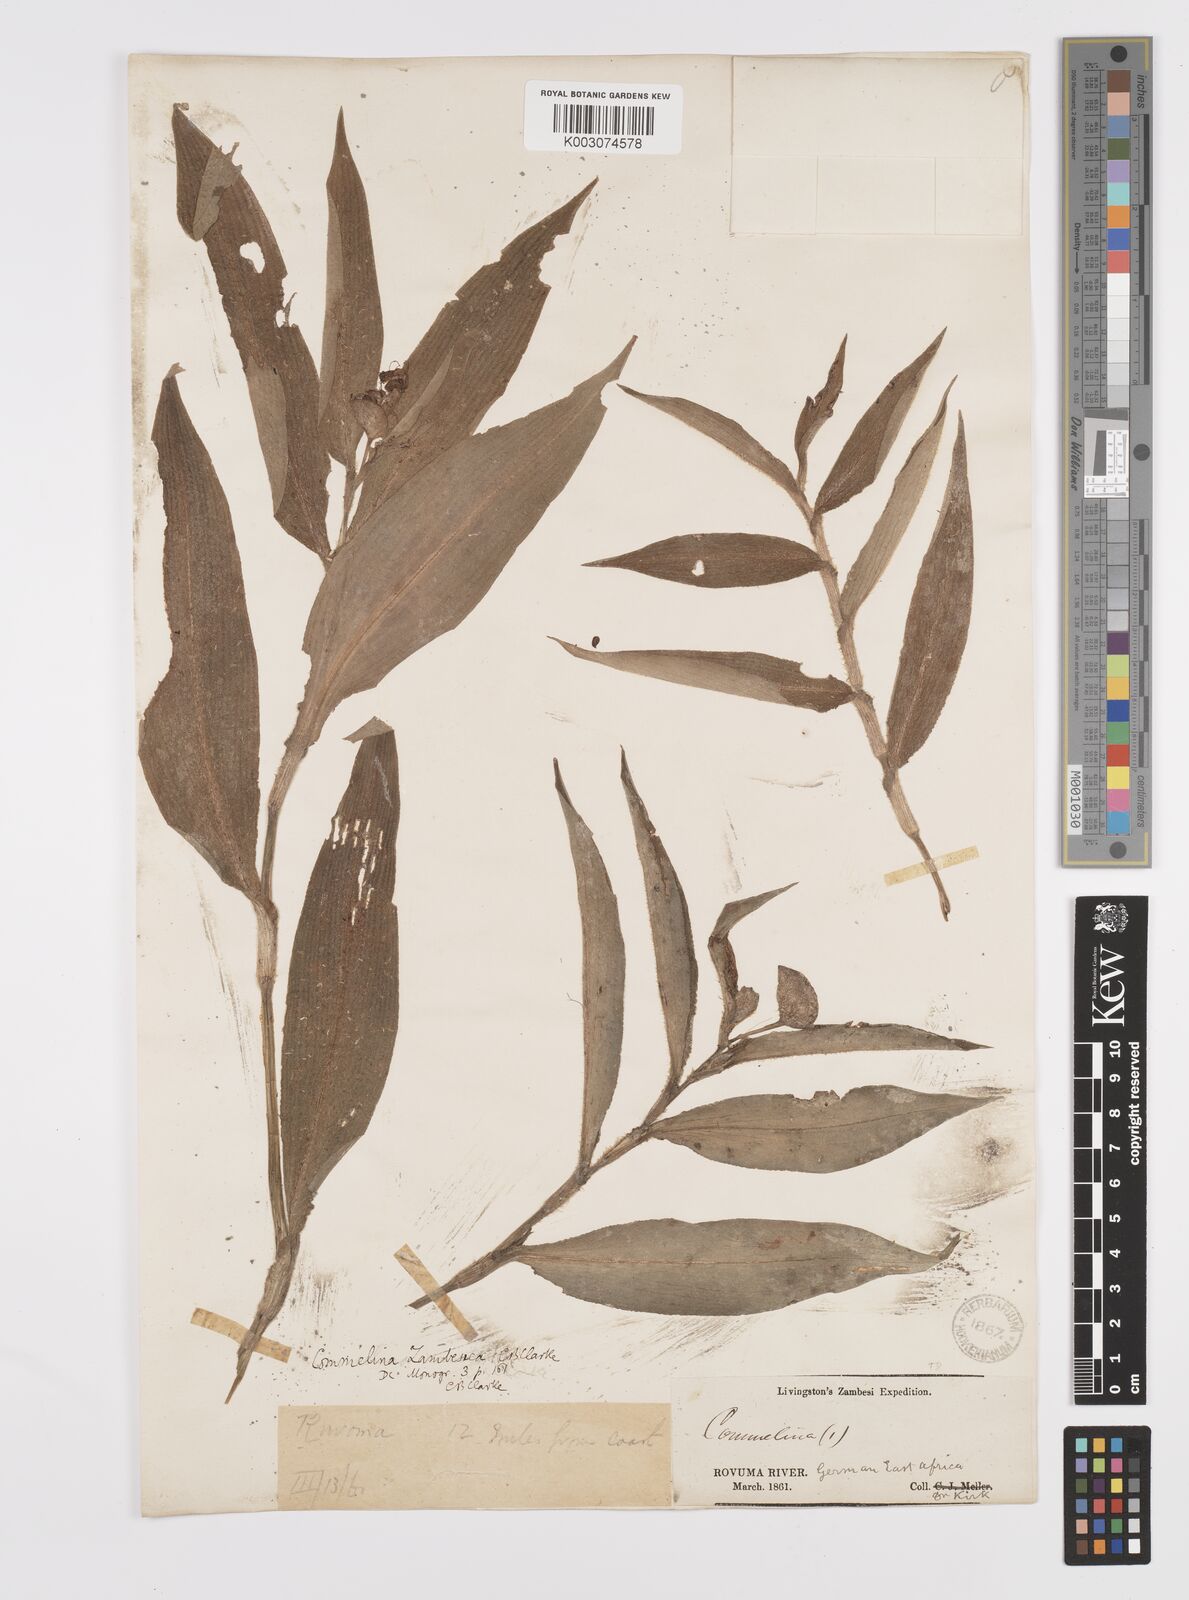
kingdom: Plantae
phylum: Tracheophyta
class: Liliopsida
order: Commelinales
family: Commelinaceae
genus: Commelina
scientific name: Commelina zambesica
